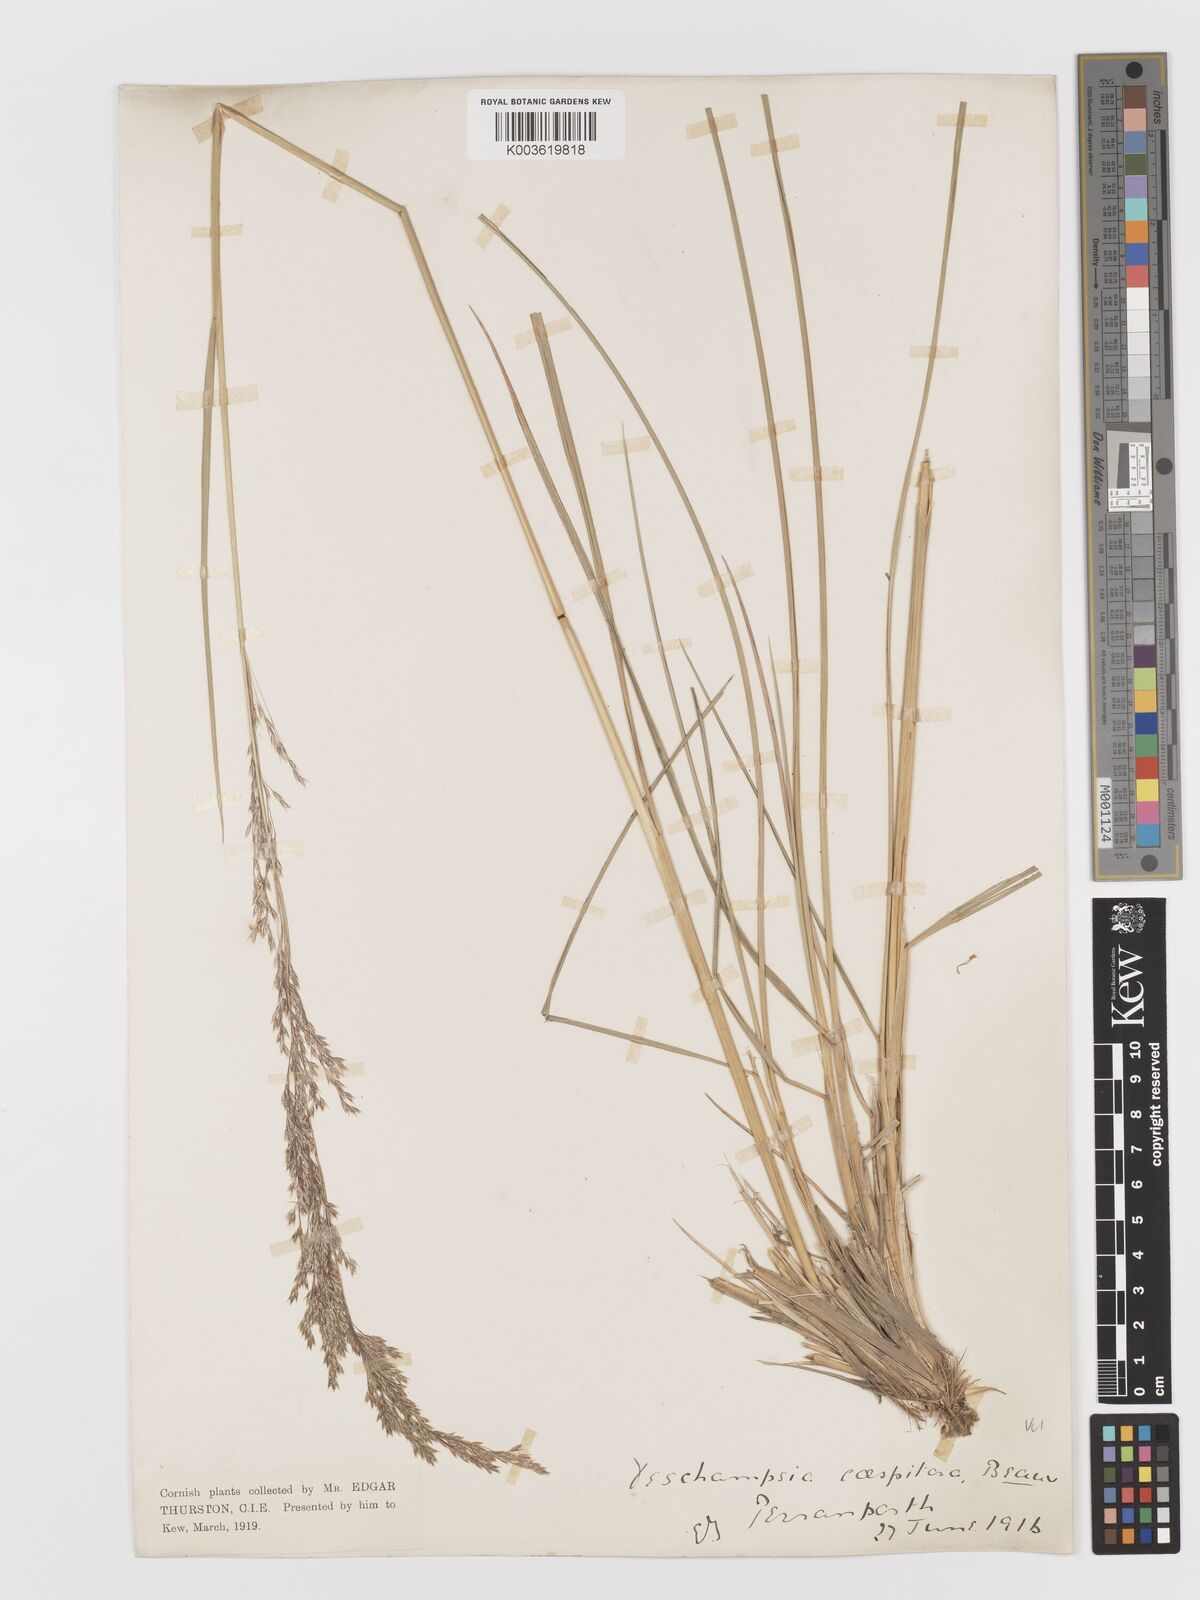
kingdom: Plantae
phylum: Tracheophyta
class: Liliopsida
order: Poales
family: Poaceae
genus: Deschampsia
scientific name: Deschampsia cespitosa
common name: Tufted hair-grass
